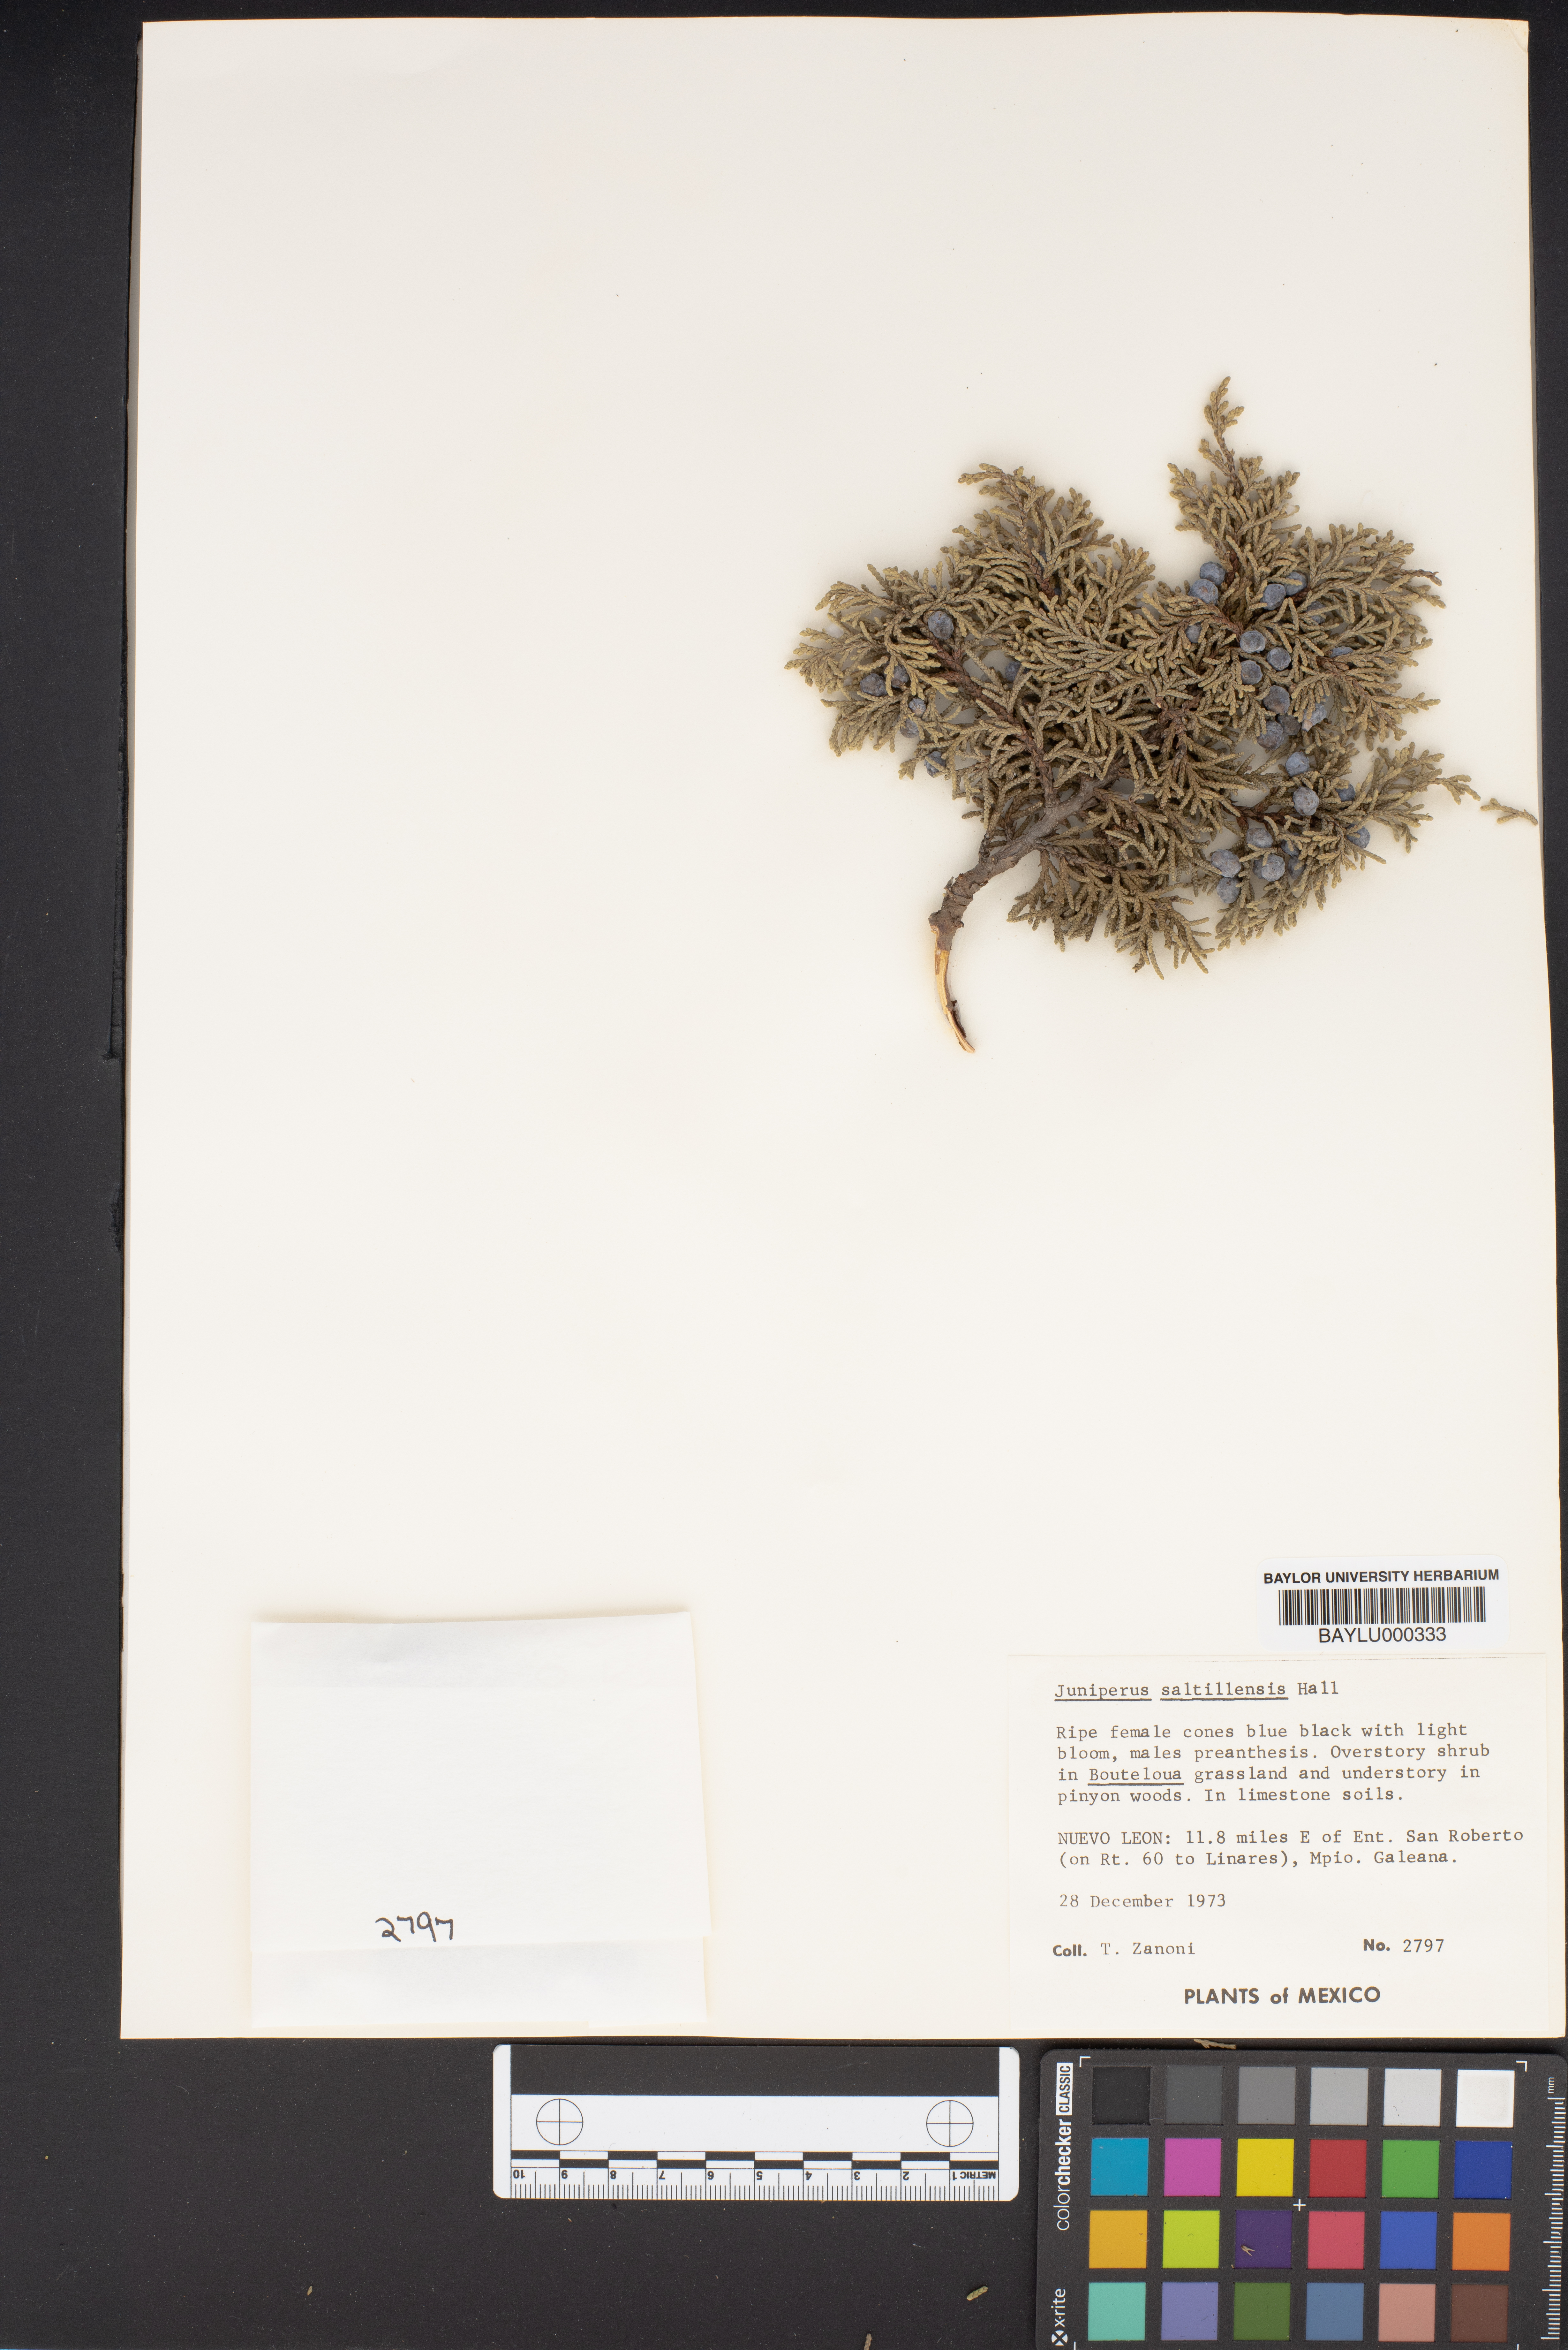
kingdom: Plantae
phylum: Tracheophyta
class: Pinopsida
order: Pinales
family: Cupressaceae
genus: Juniperus
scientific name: Juniperus saltillensis
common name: Saltillo juniper
